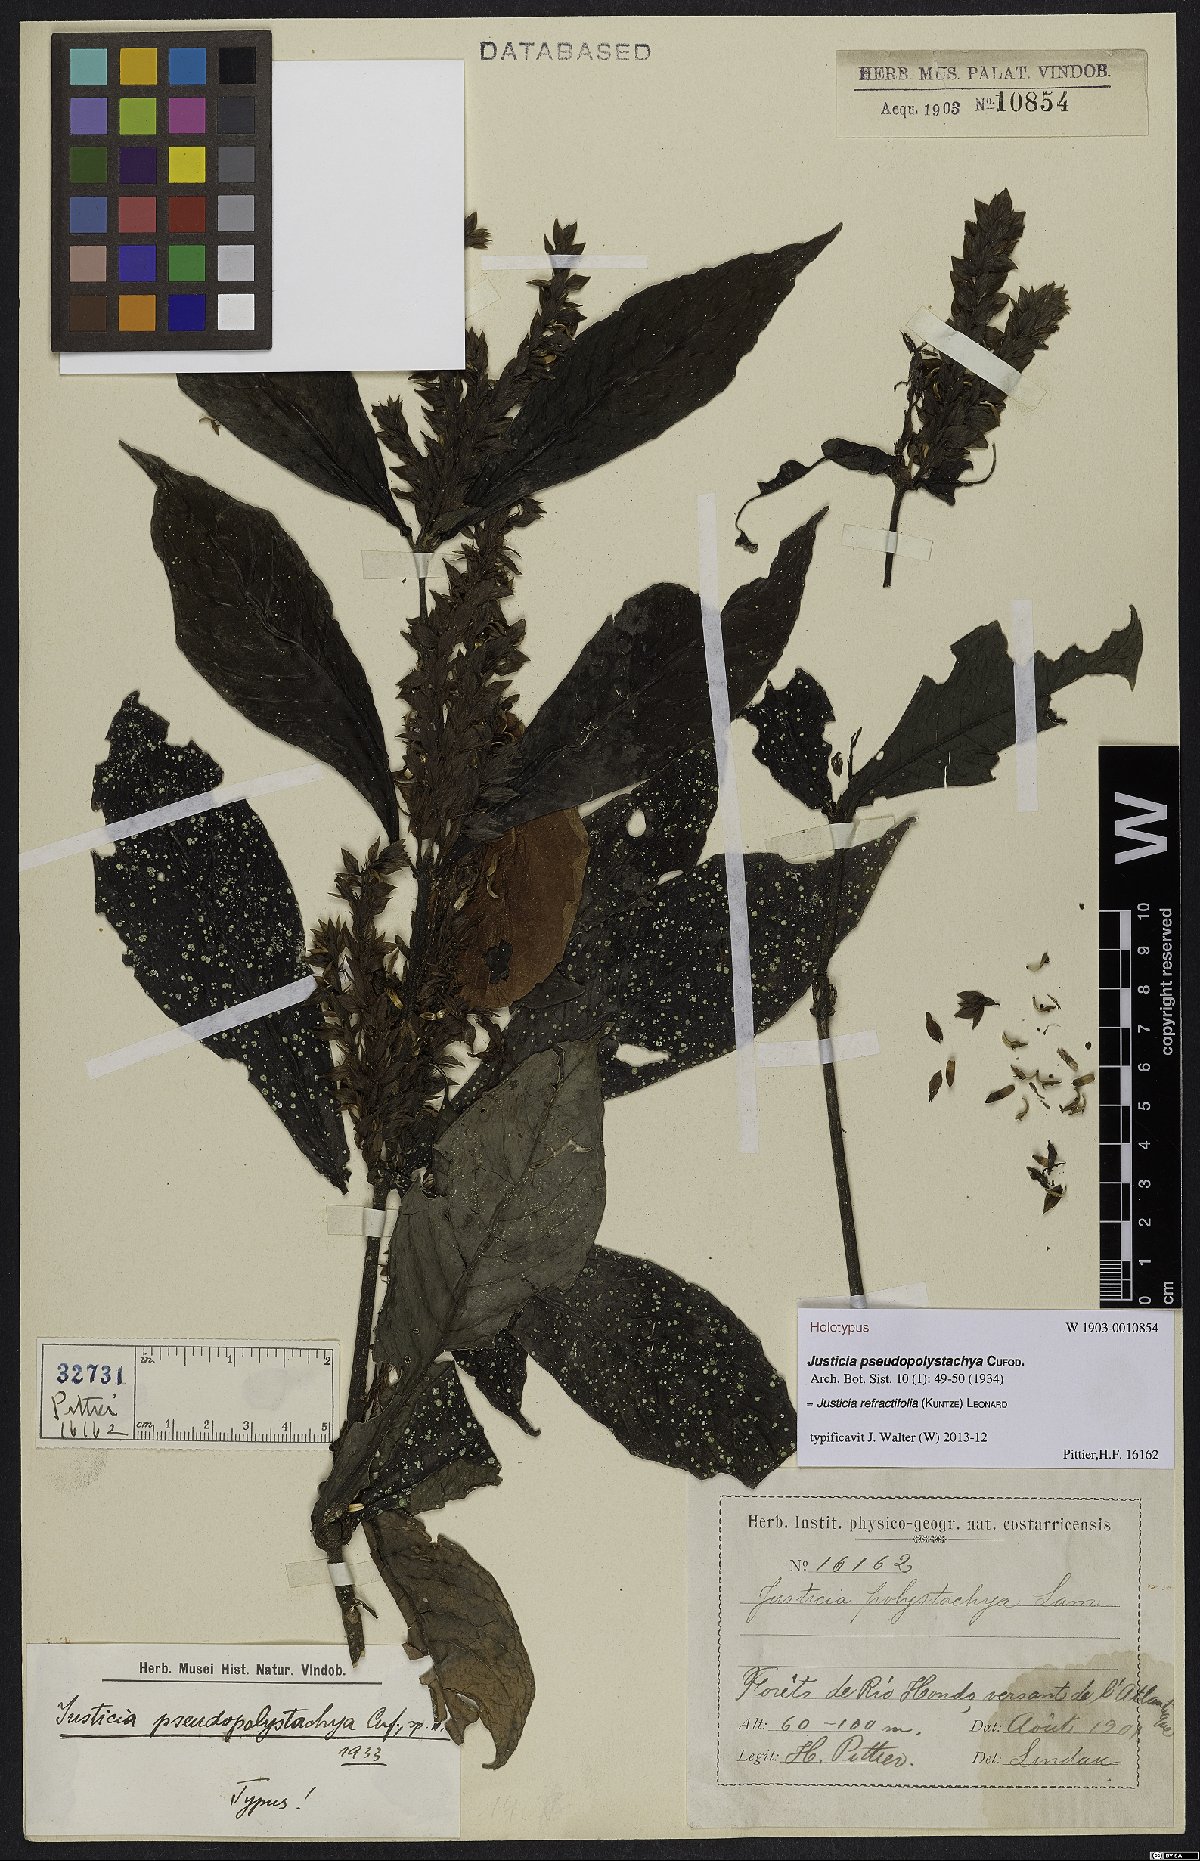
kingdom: Plantae
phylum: Tracheophyta
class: Magnoliopsida
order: Lamiales
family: Acanthaceae
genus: Justicia
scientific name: Justicia refractifolia
